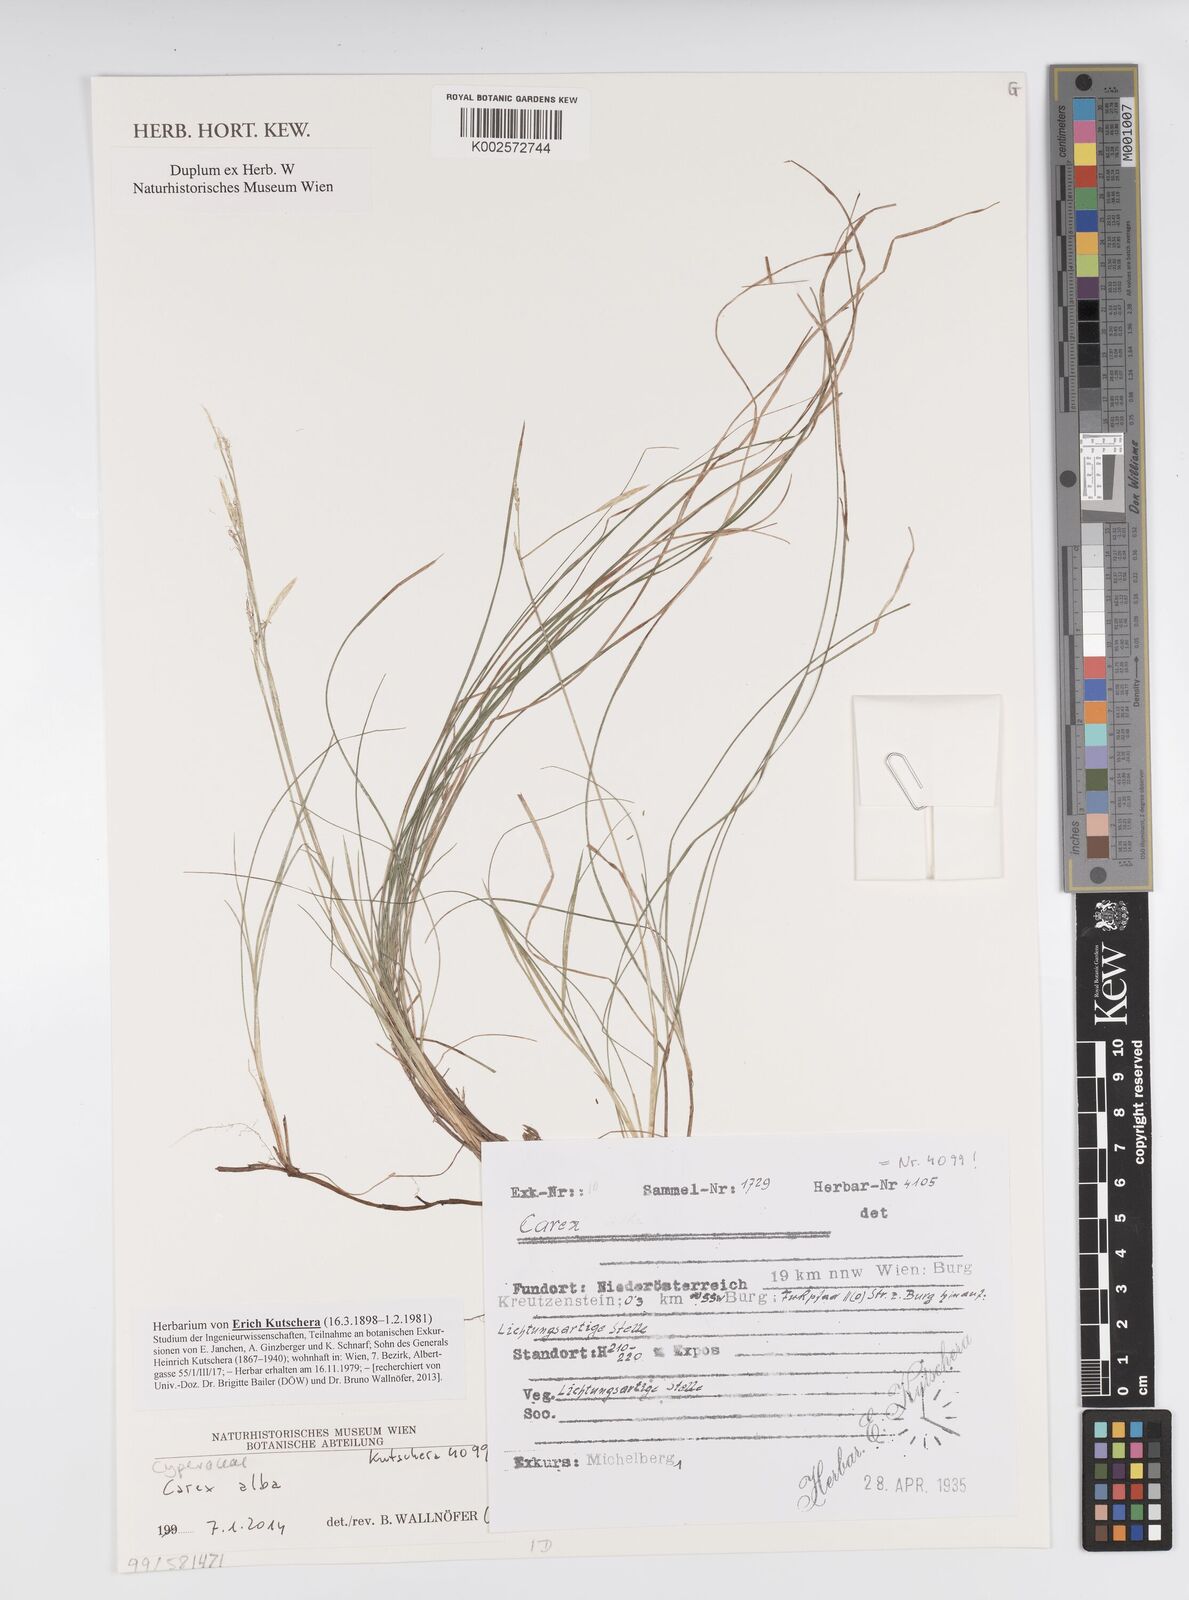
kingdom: Plantae
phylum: Tracheophyta
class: Liliopsida
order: Poales
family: Cyperaceae
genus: Carex
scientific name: Carex alba
